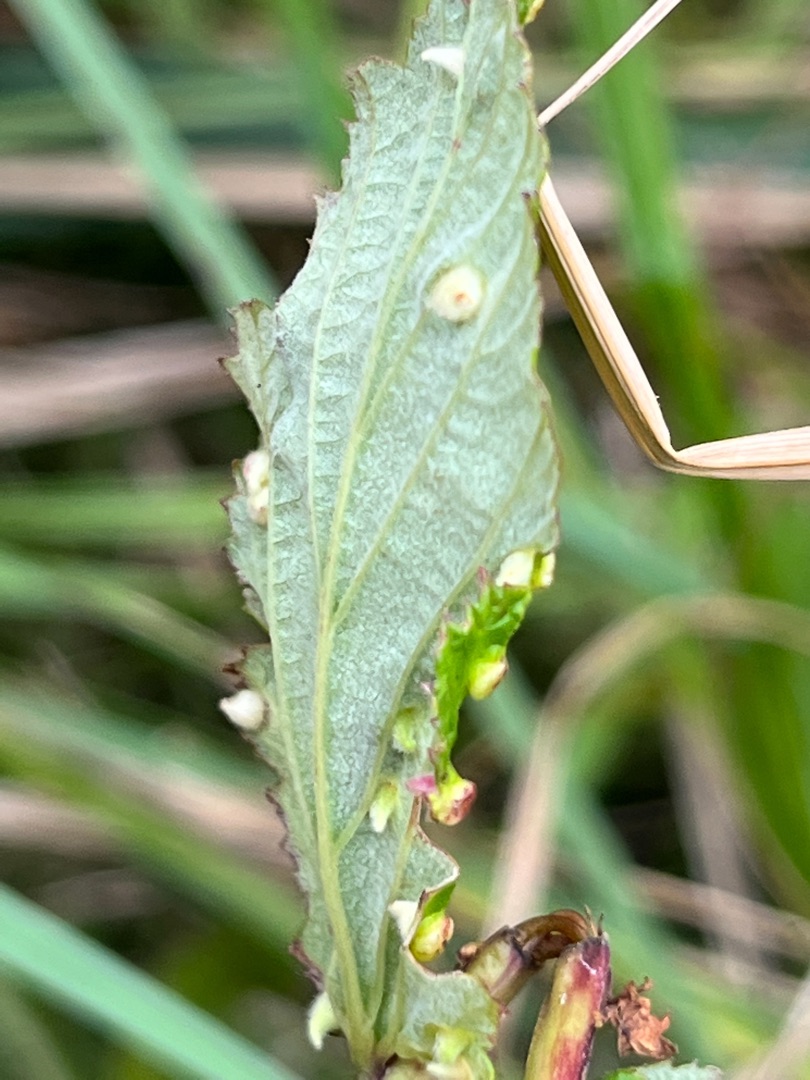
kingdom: Animalia
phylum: Arthropoda
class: Insecta
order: Diptera
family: Cecidomyiidae
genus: Dasineura
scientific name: Dasineura ulmaria
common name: Mjødurtgalmyg
